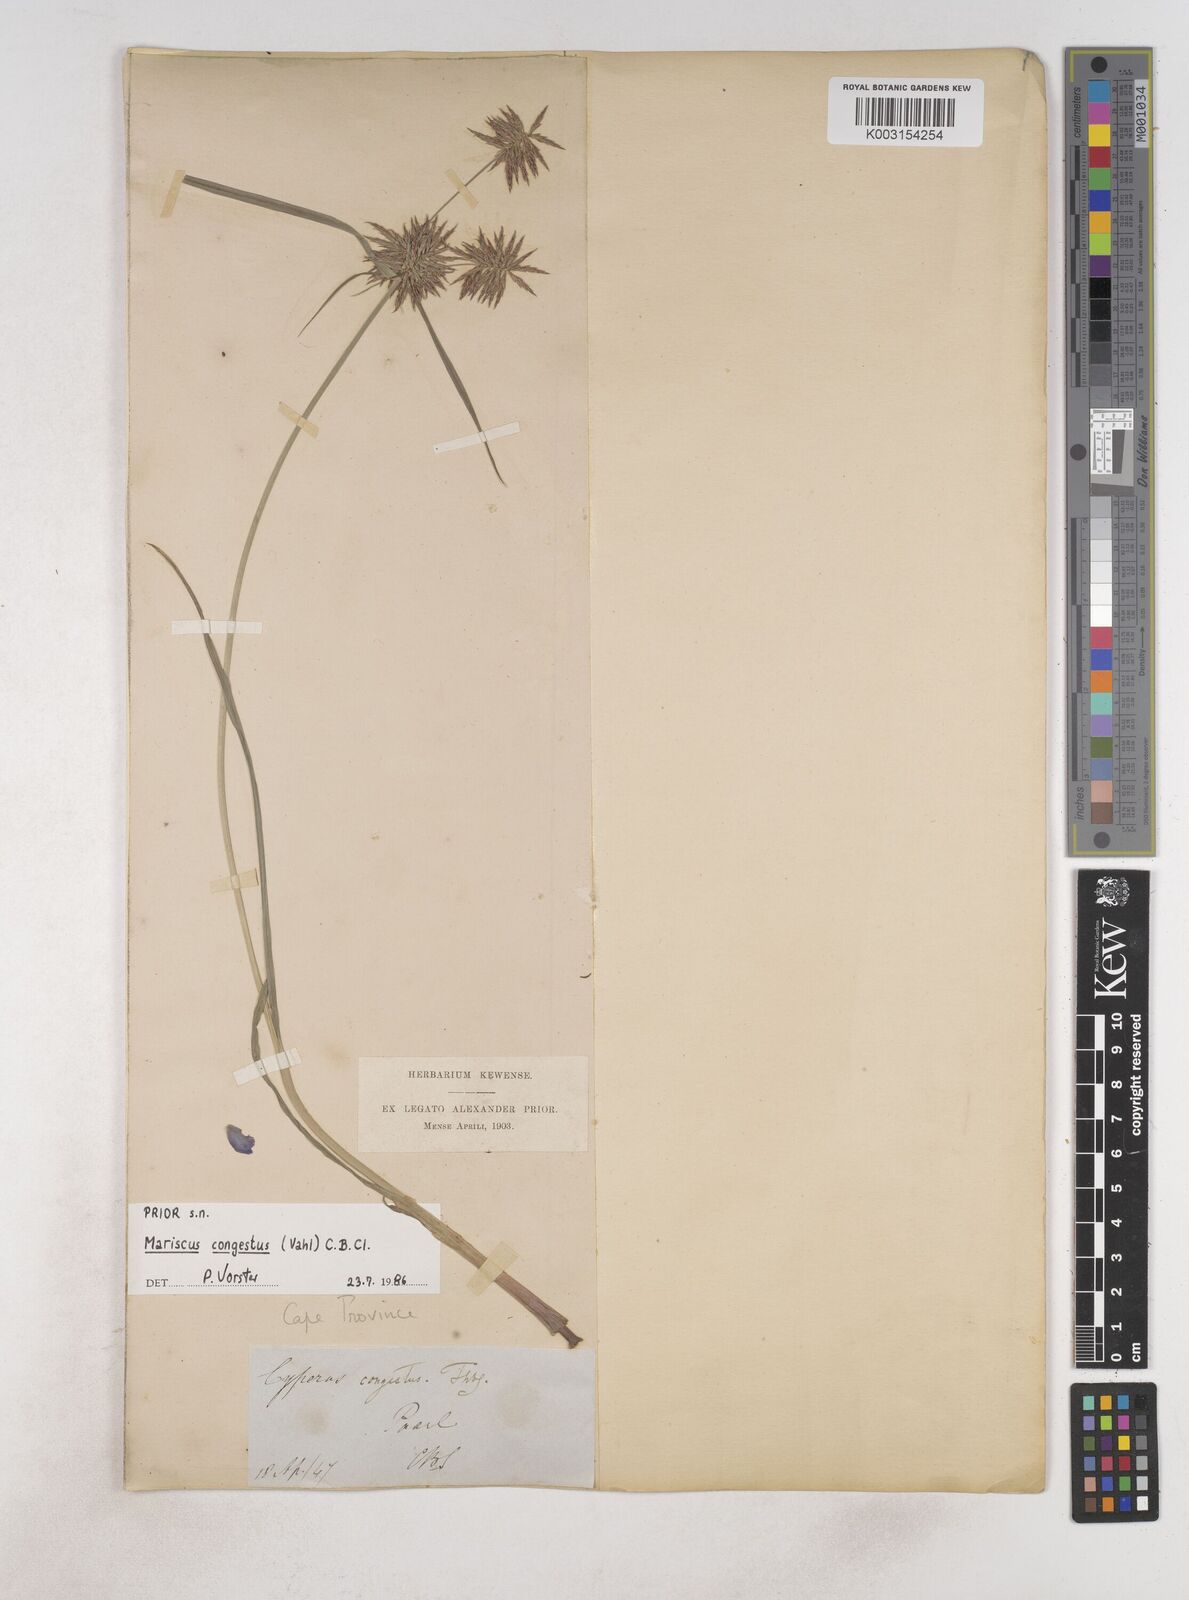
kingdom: Plantae
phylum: Tracheophyta
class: Liliopsida
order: Poales
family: Cyperaceae
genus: Cyperus
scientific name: Cyperus congestus
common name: Dense flat sedge
